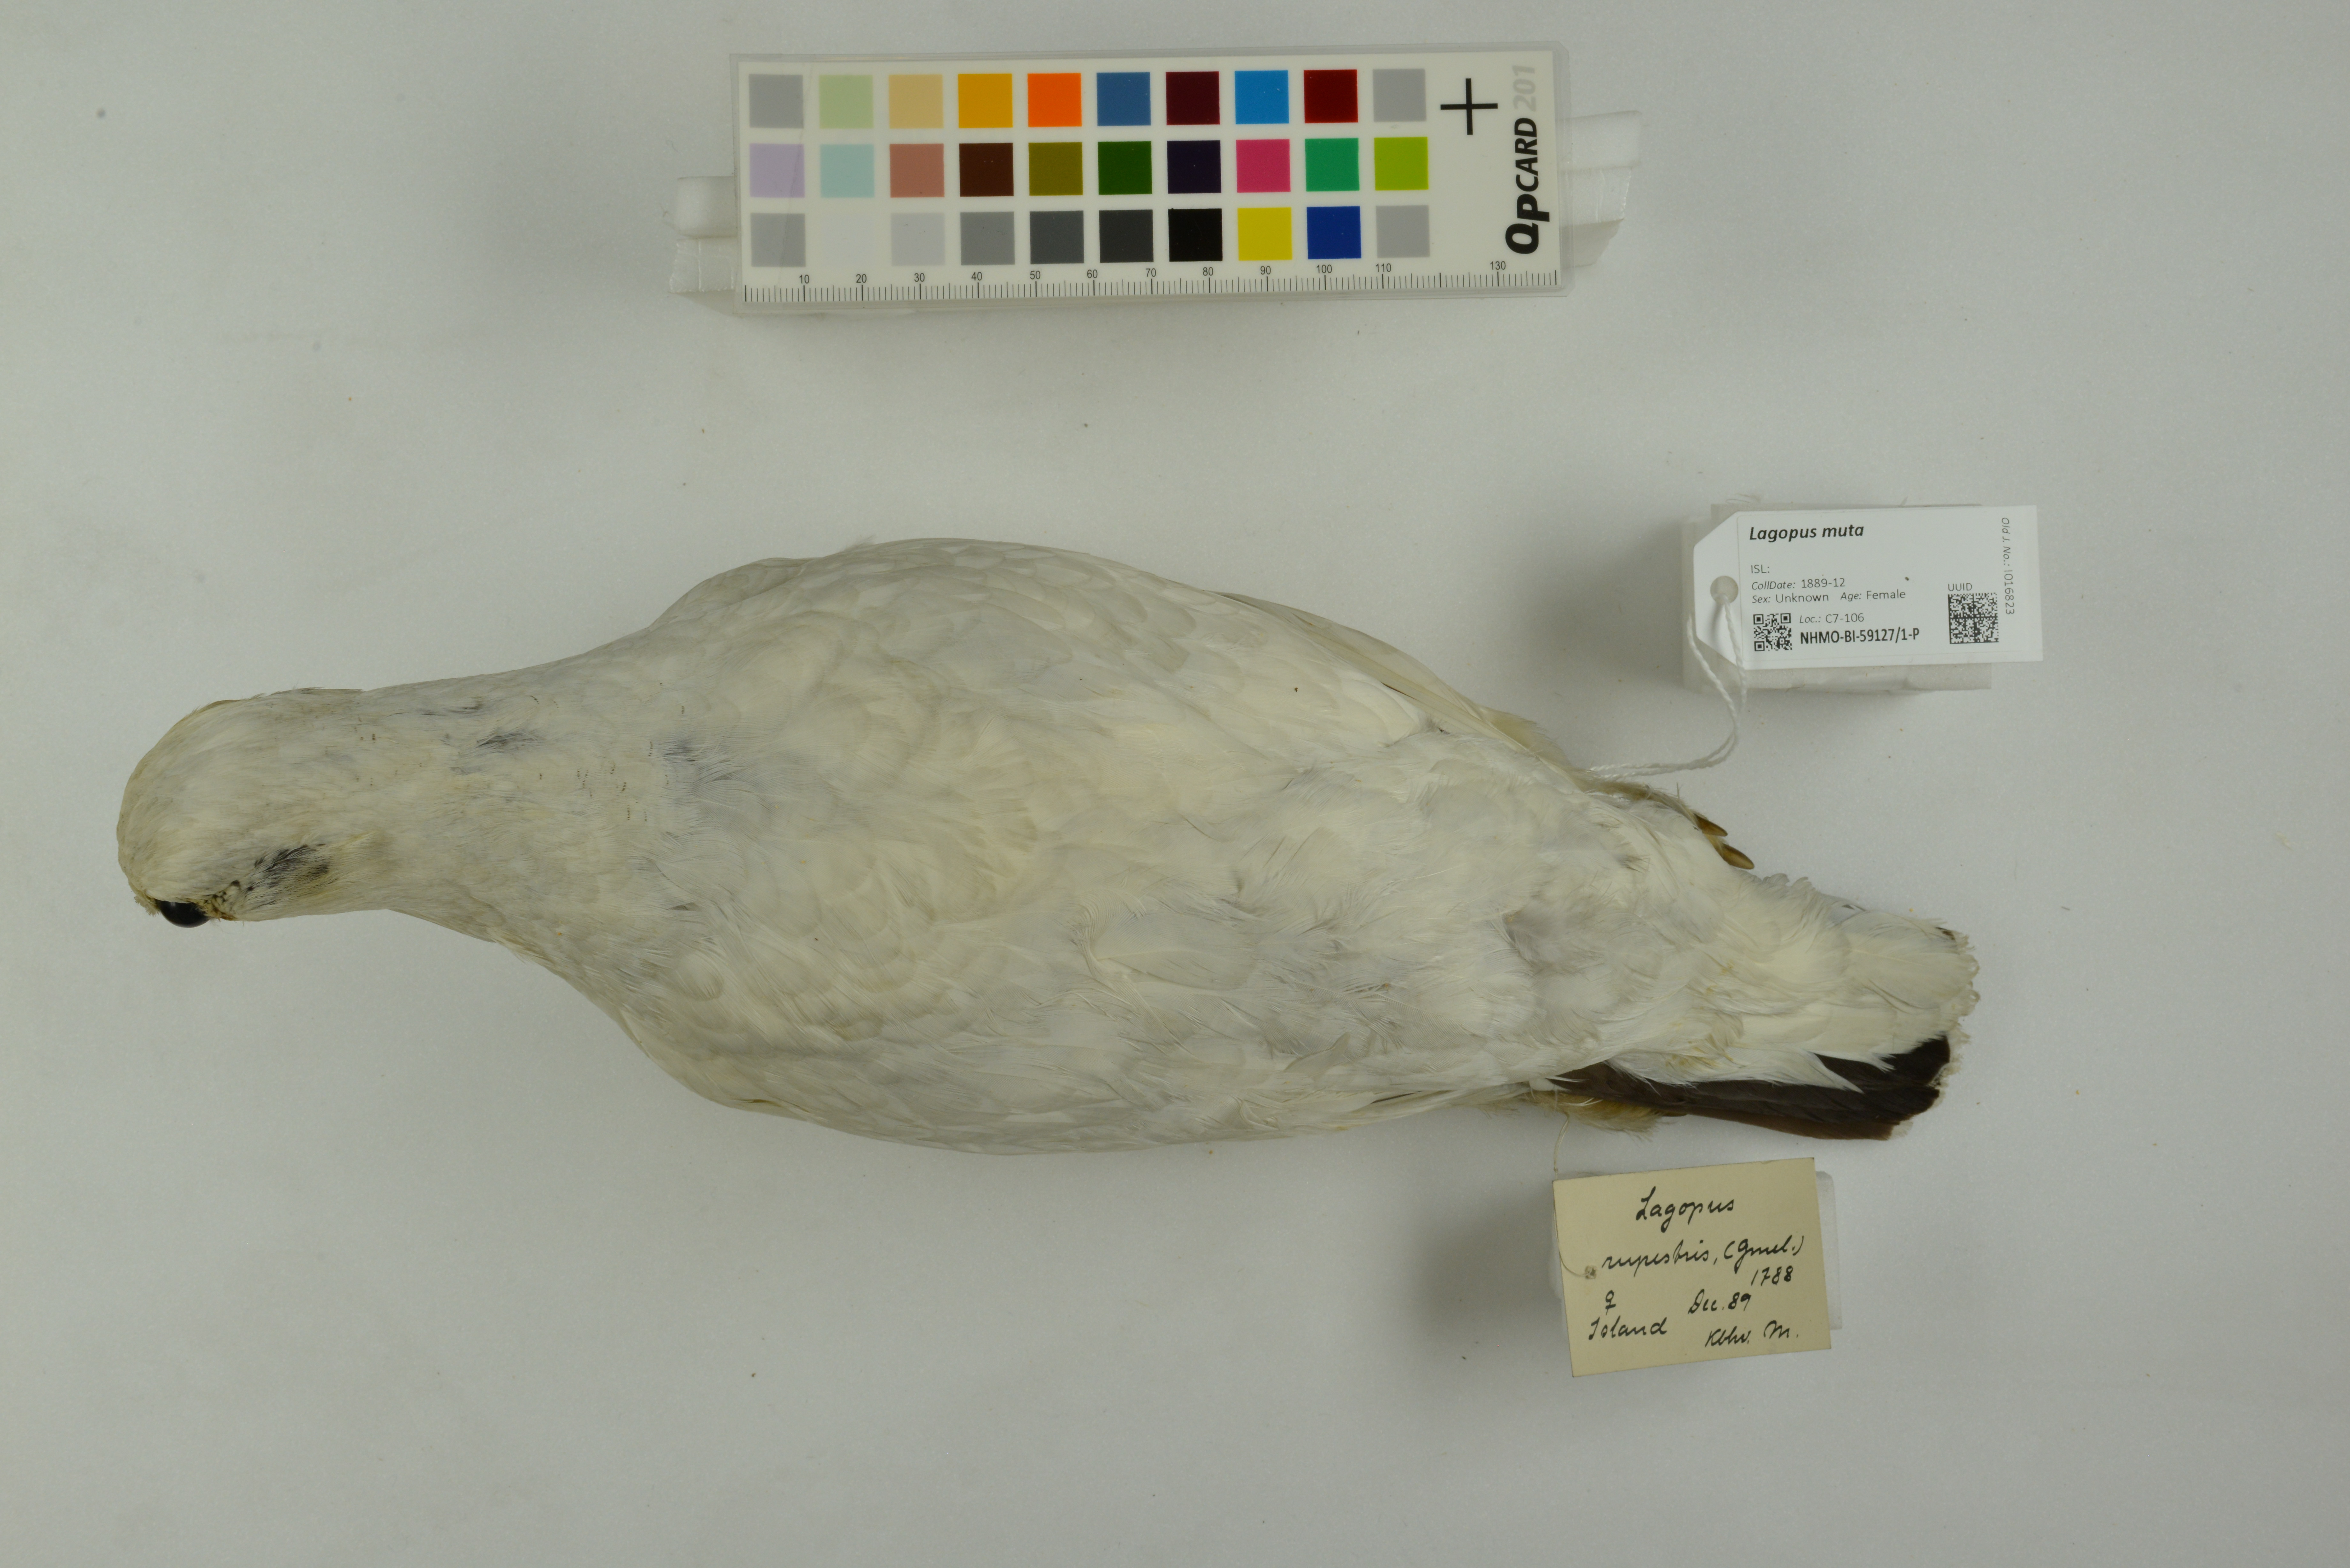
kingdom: Animalia
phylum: Chordata
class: Aves
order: Galliformes
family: Phasianidae
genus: Lagopus
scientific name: Lagopus muta
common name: Rock ptarmigan
